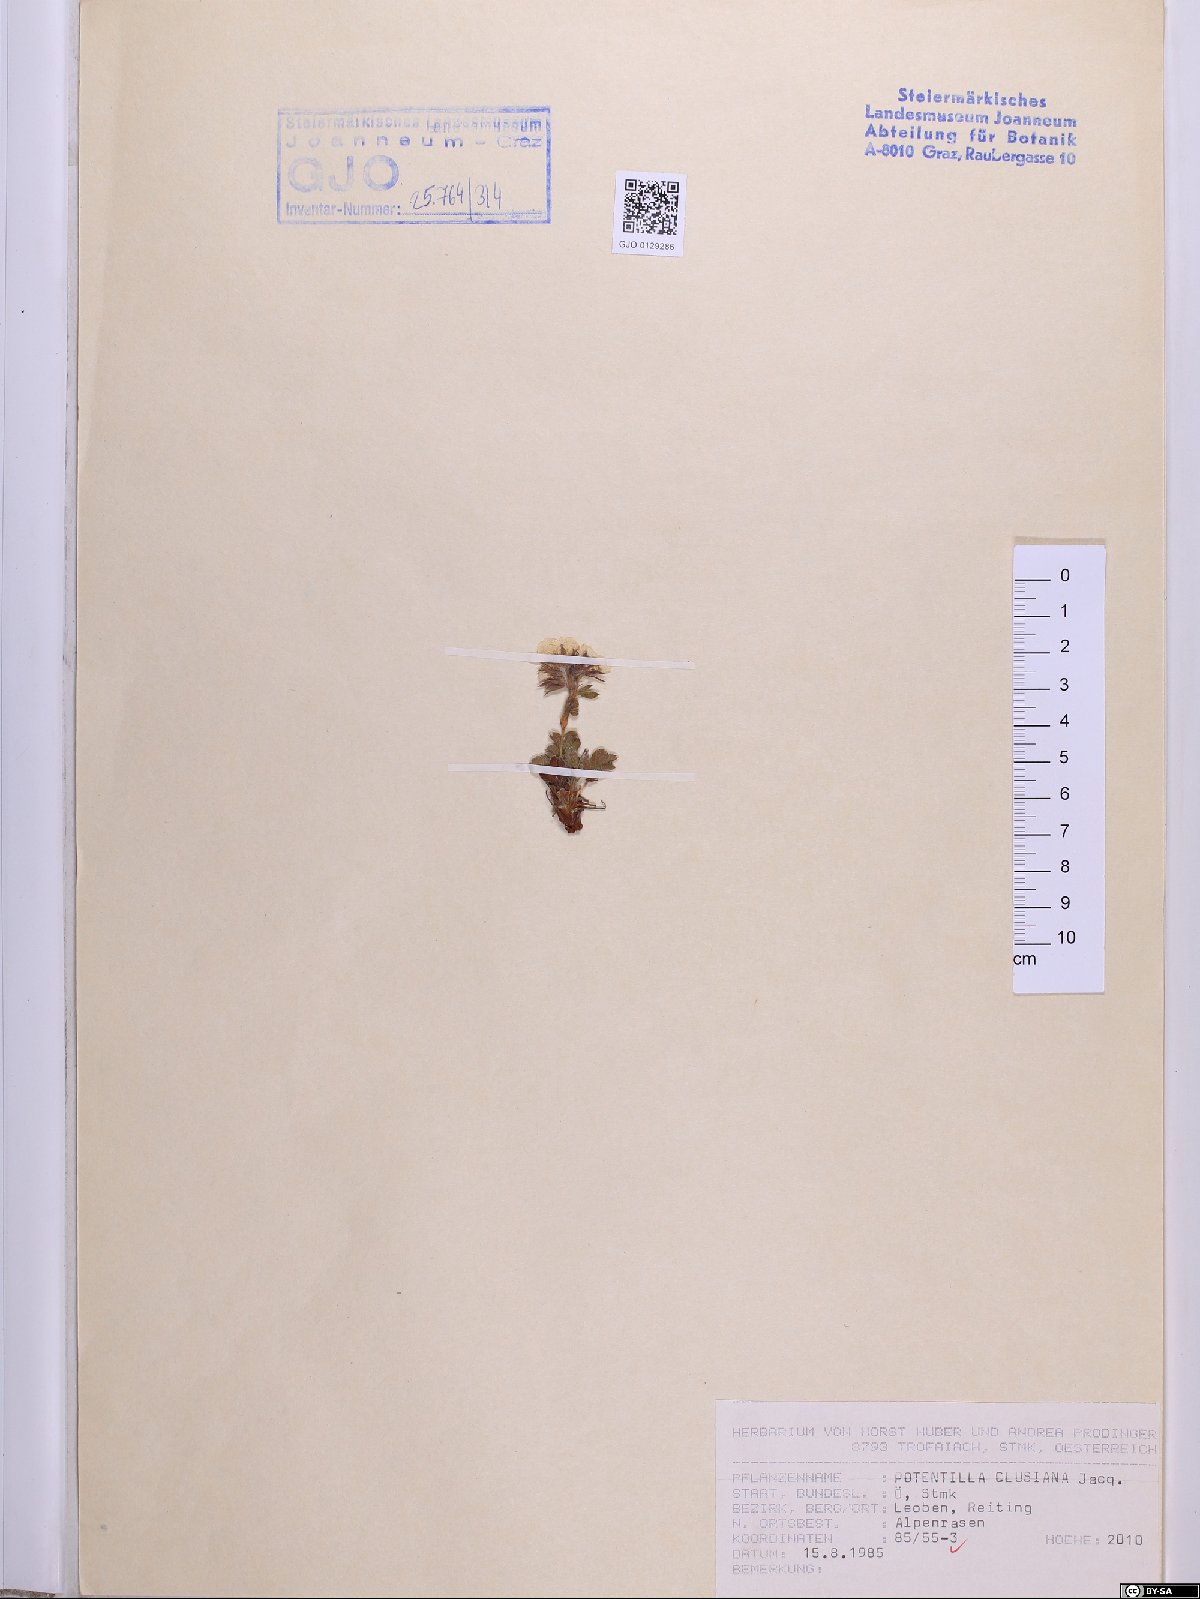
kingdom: Plantae
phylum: Tracheophyta
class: Magnoliopsida
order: Rosales
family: Rosaceae
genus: Potentilla
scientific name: Potentilla clusiana
